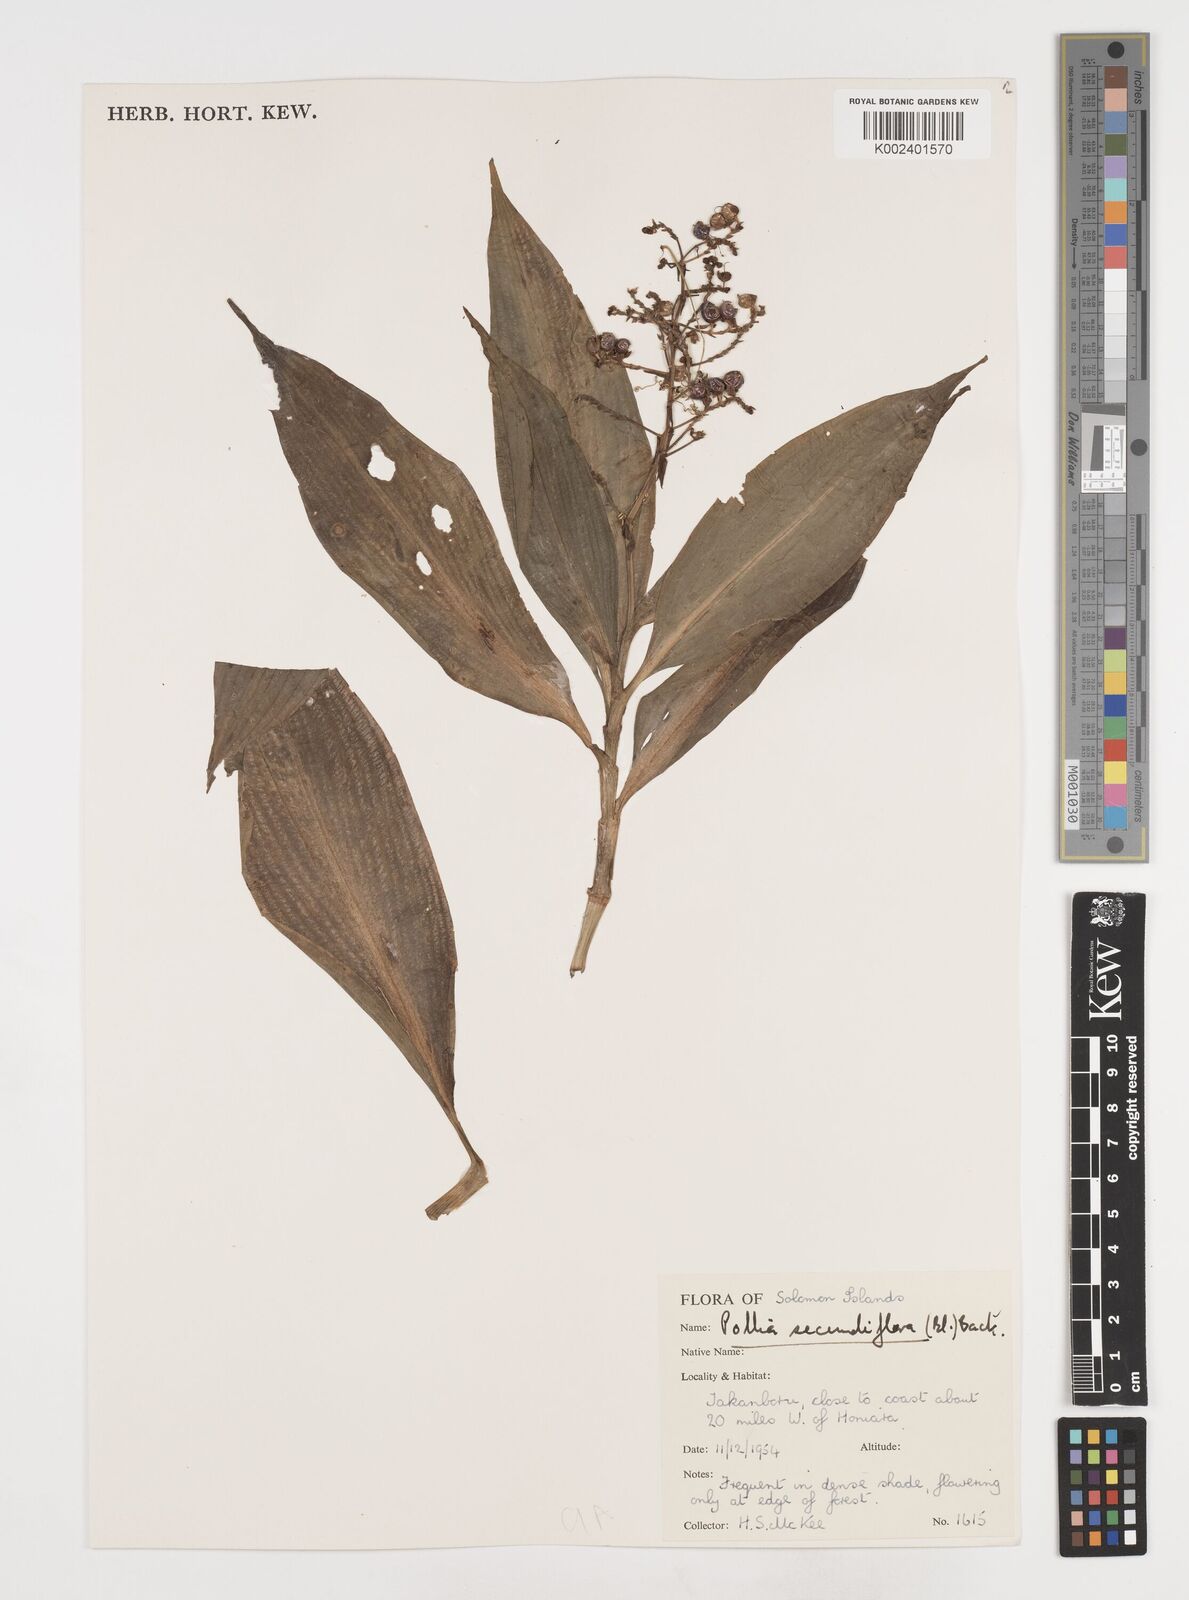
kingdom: Plantae
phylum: Tracheophyta
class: Liliopsida
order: Commelinales
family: Commelinaceae
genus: Pollia
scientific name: Pollia secundiflora
